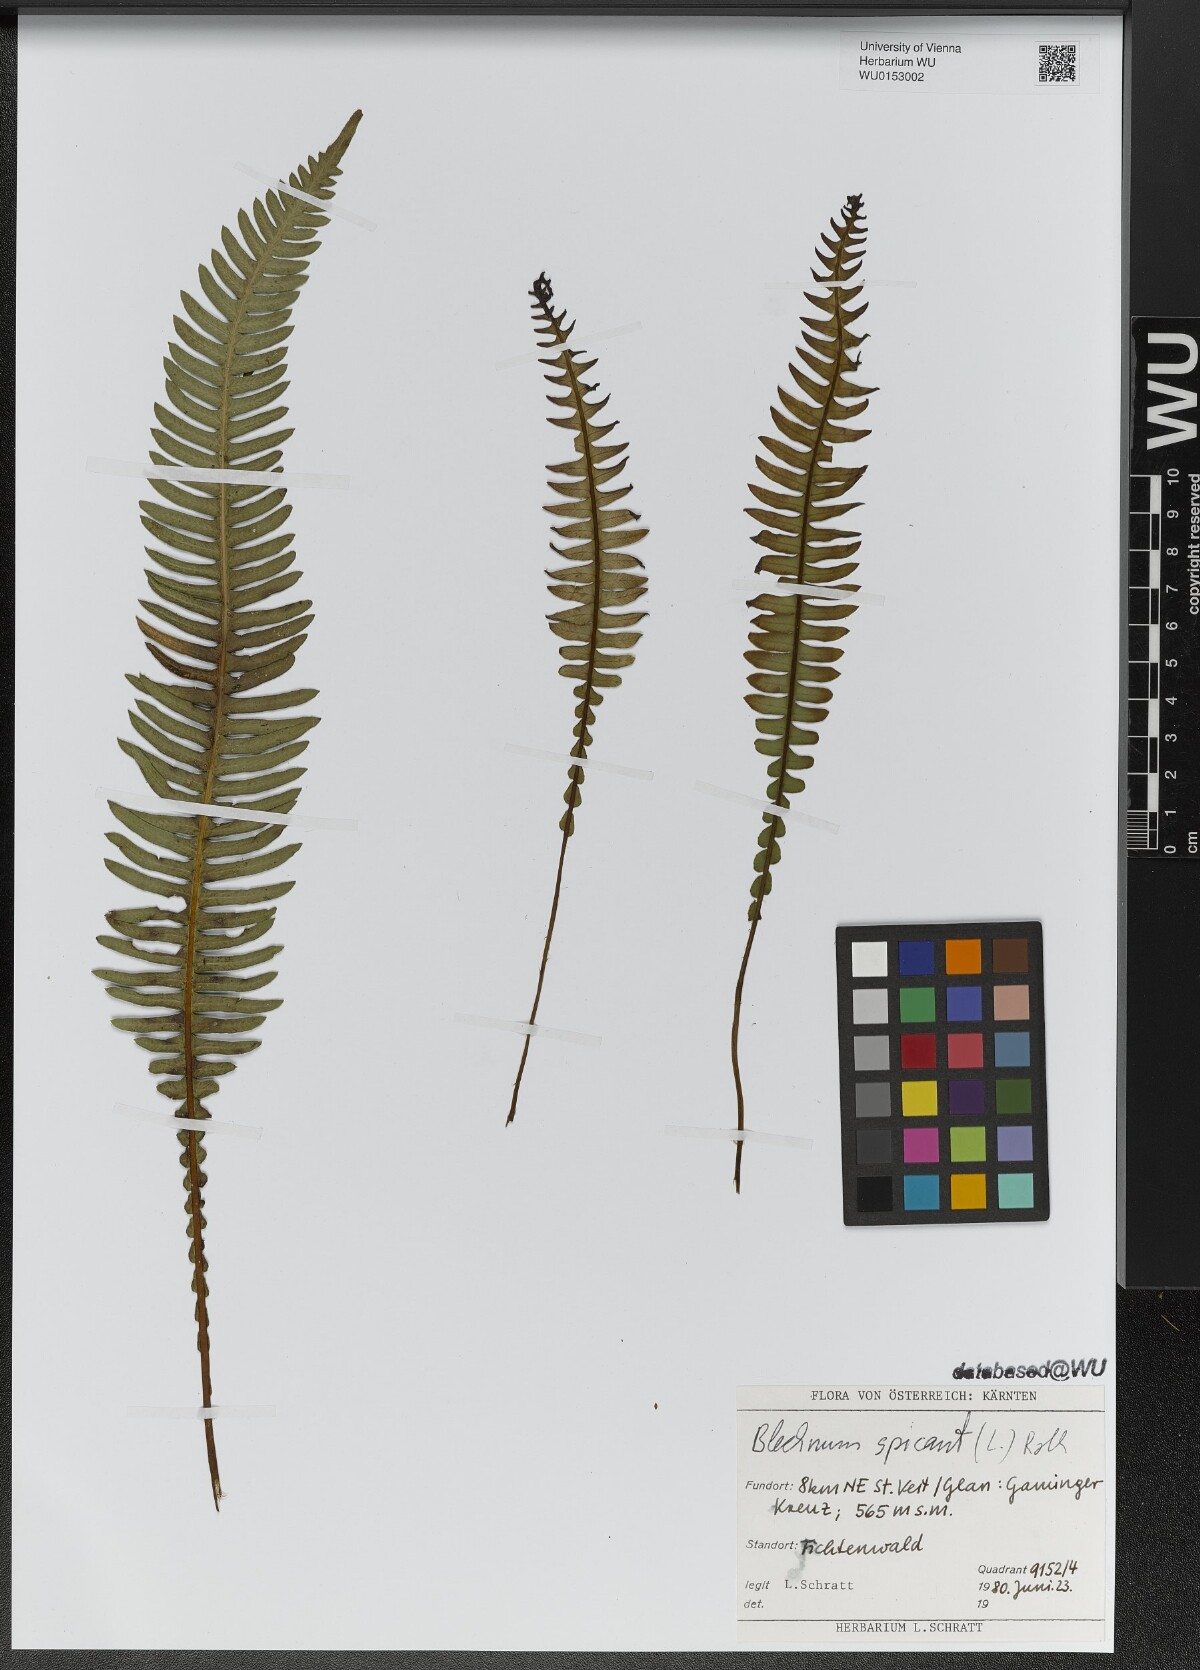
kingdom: Plantae
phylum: Tracheophyta
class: Polypodiopsida
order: Polypodiales
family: Blechnaceae
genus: Struthiopteris
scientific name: Struthiopteris spicant
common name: Deer fern
